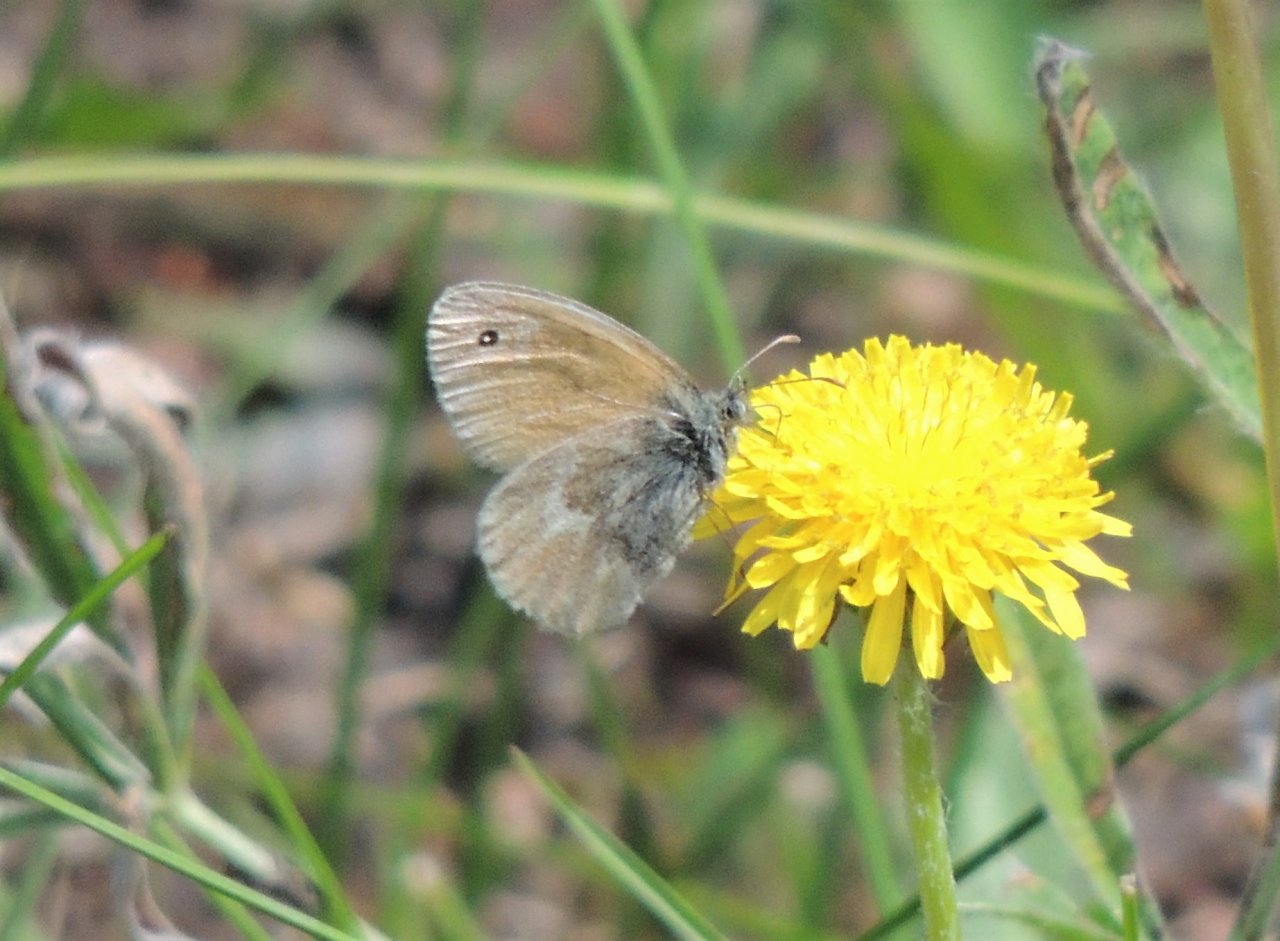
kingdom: Animalia
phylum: Arthropoda
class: Insecta
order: Lepidoptera
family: Nymphalidae
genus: Coenonympha
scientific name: Coenonympha tullia
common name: Large Heath
